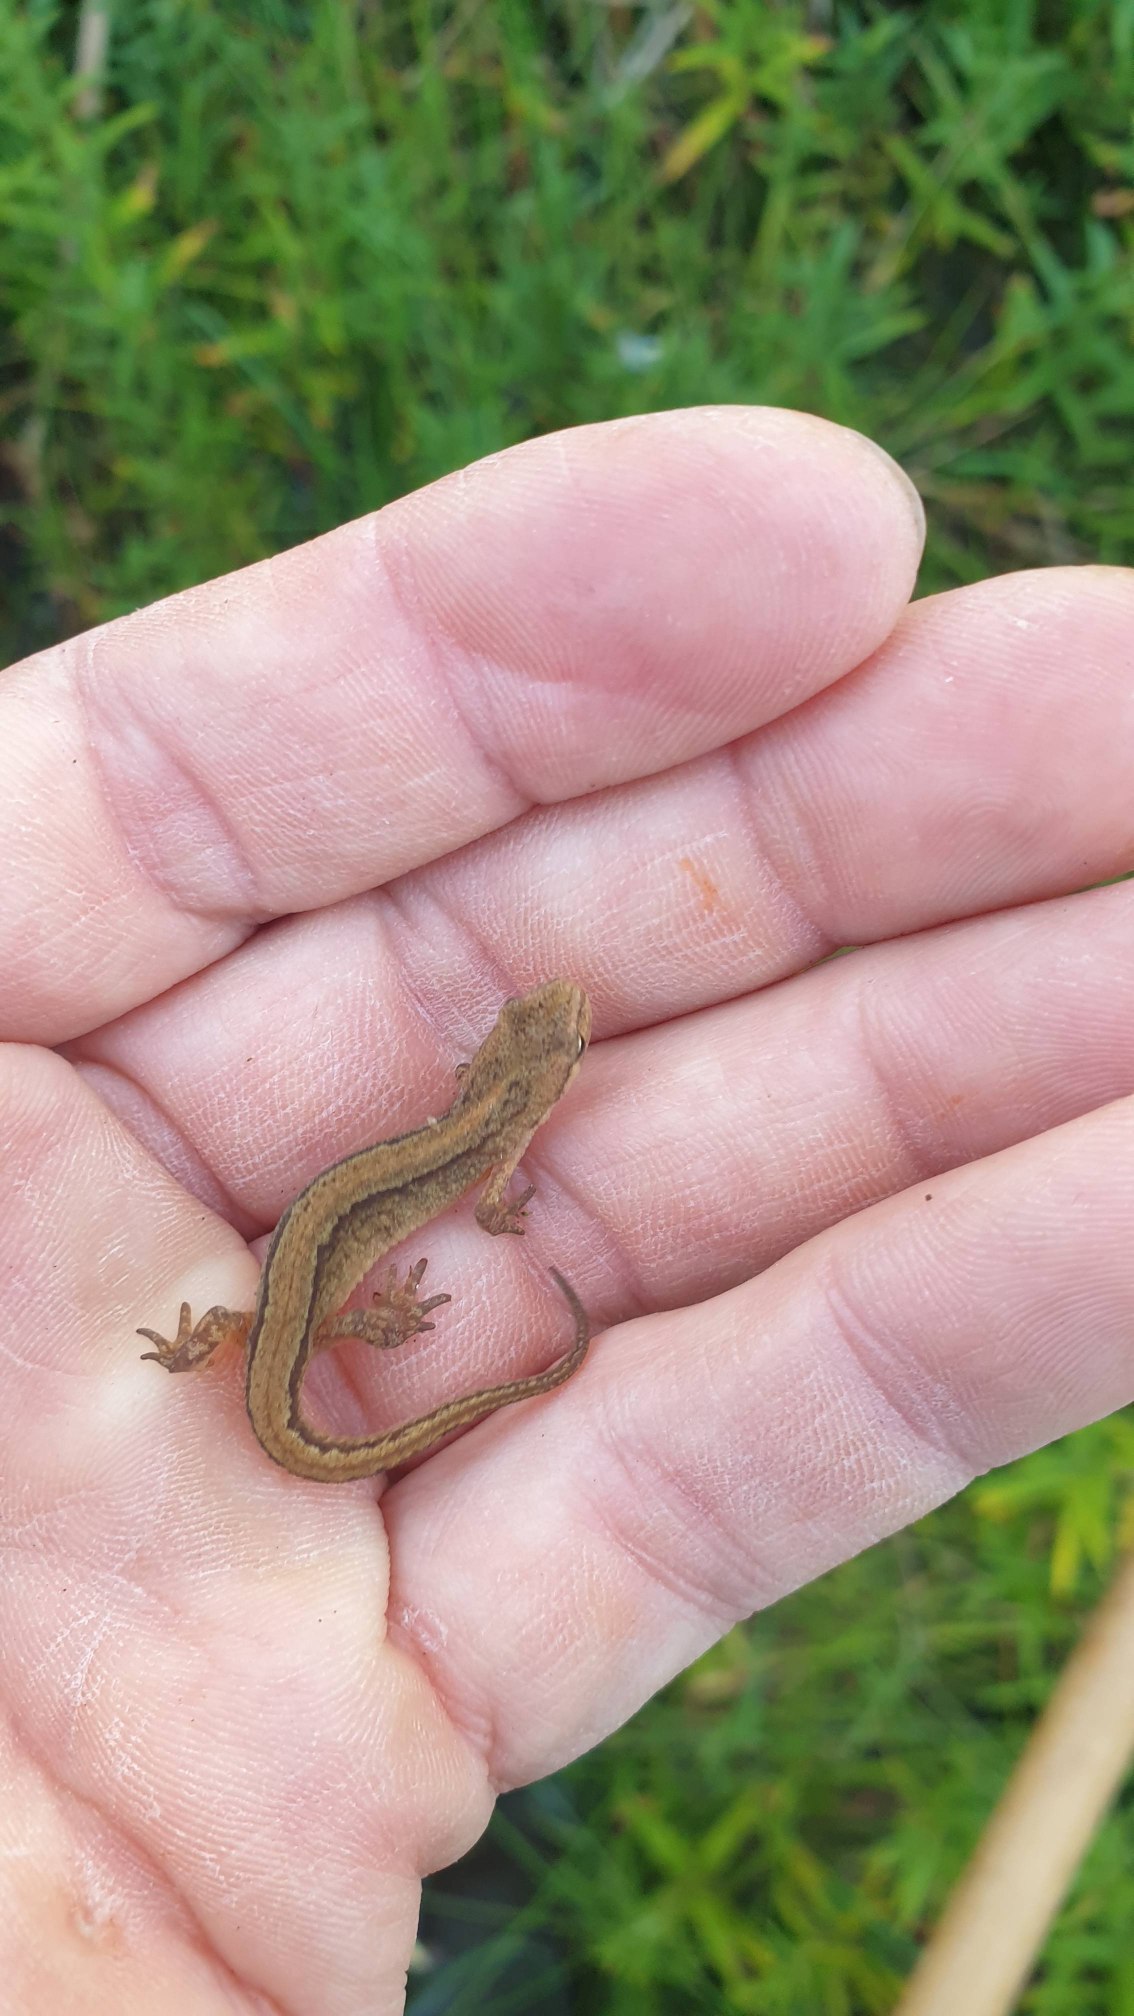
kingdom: Animalia
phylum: Chordata
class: Amphibia
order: Caudata
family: Salamandridae
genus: Lissotriton
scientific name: Lissotriton vulgaris
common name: Lille vandsalamander
